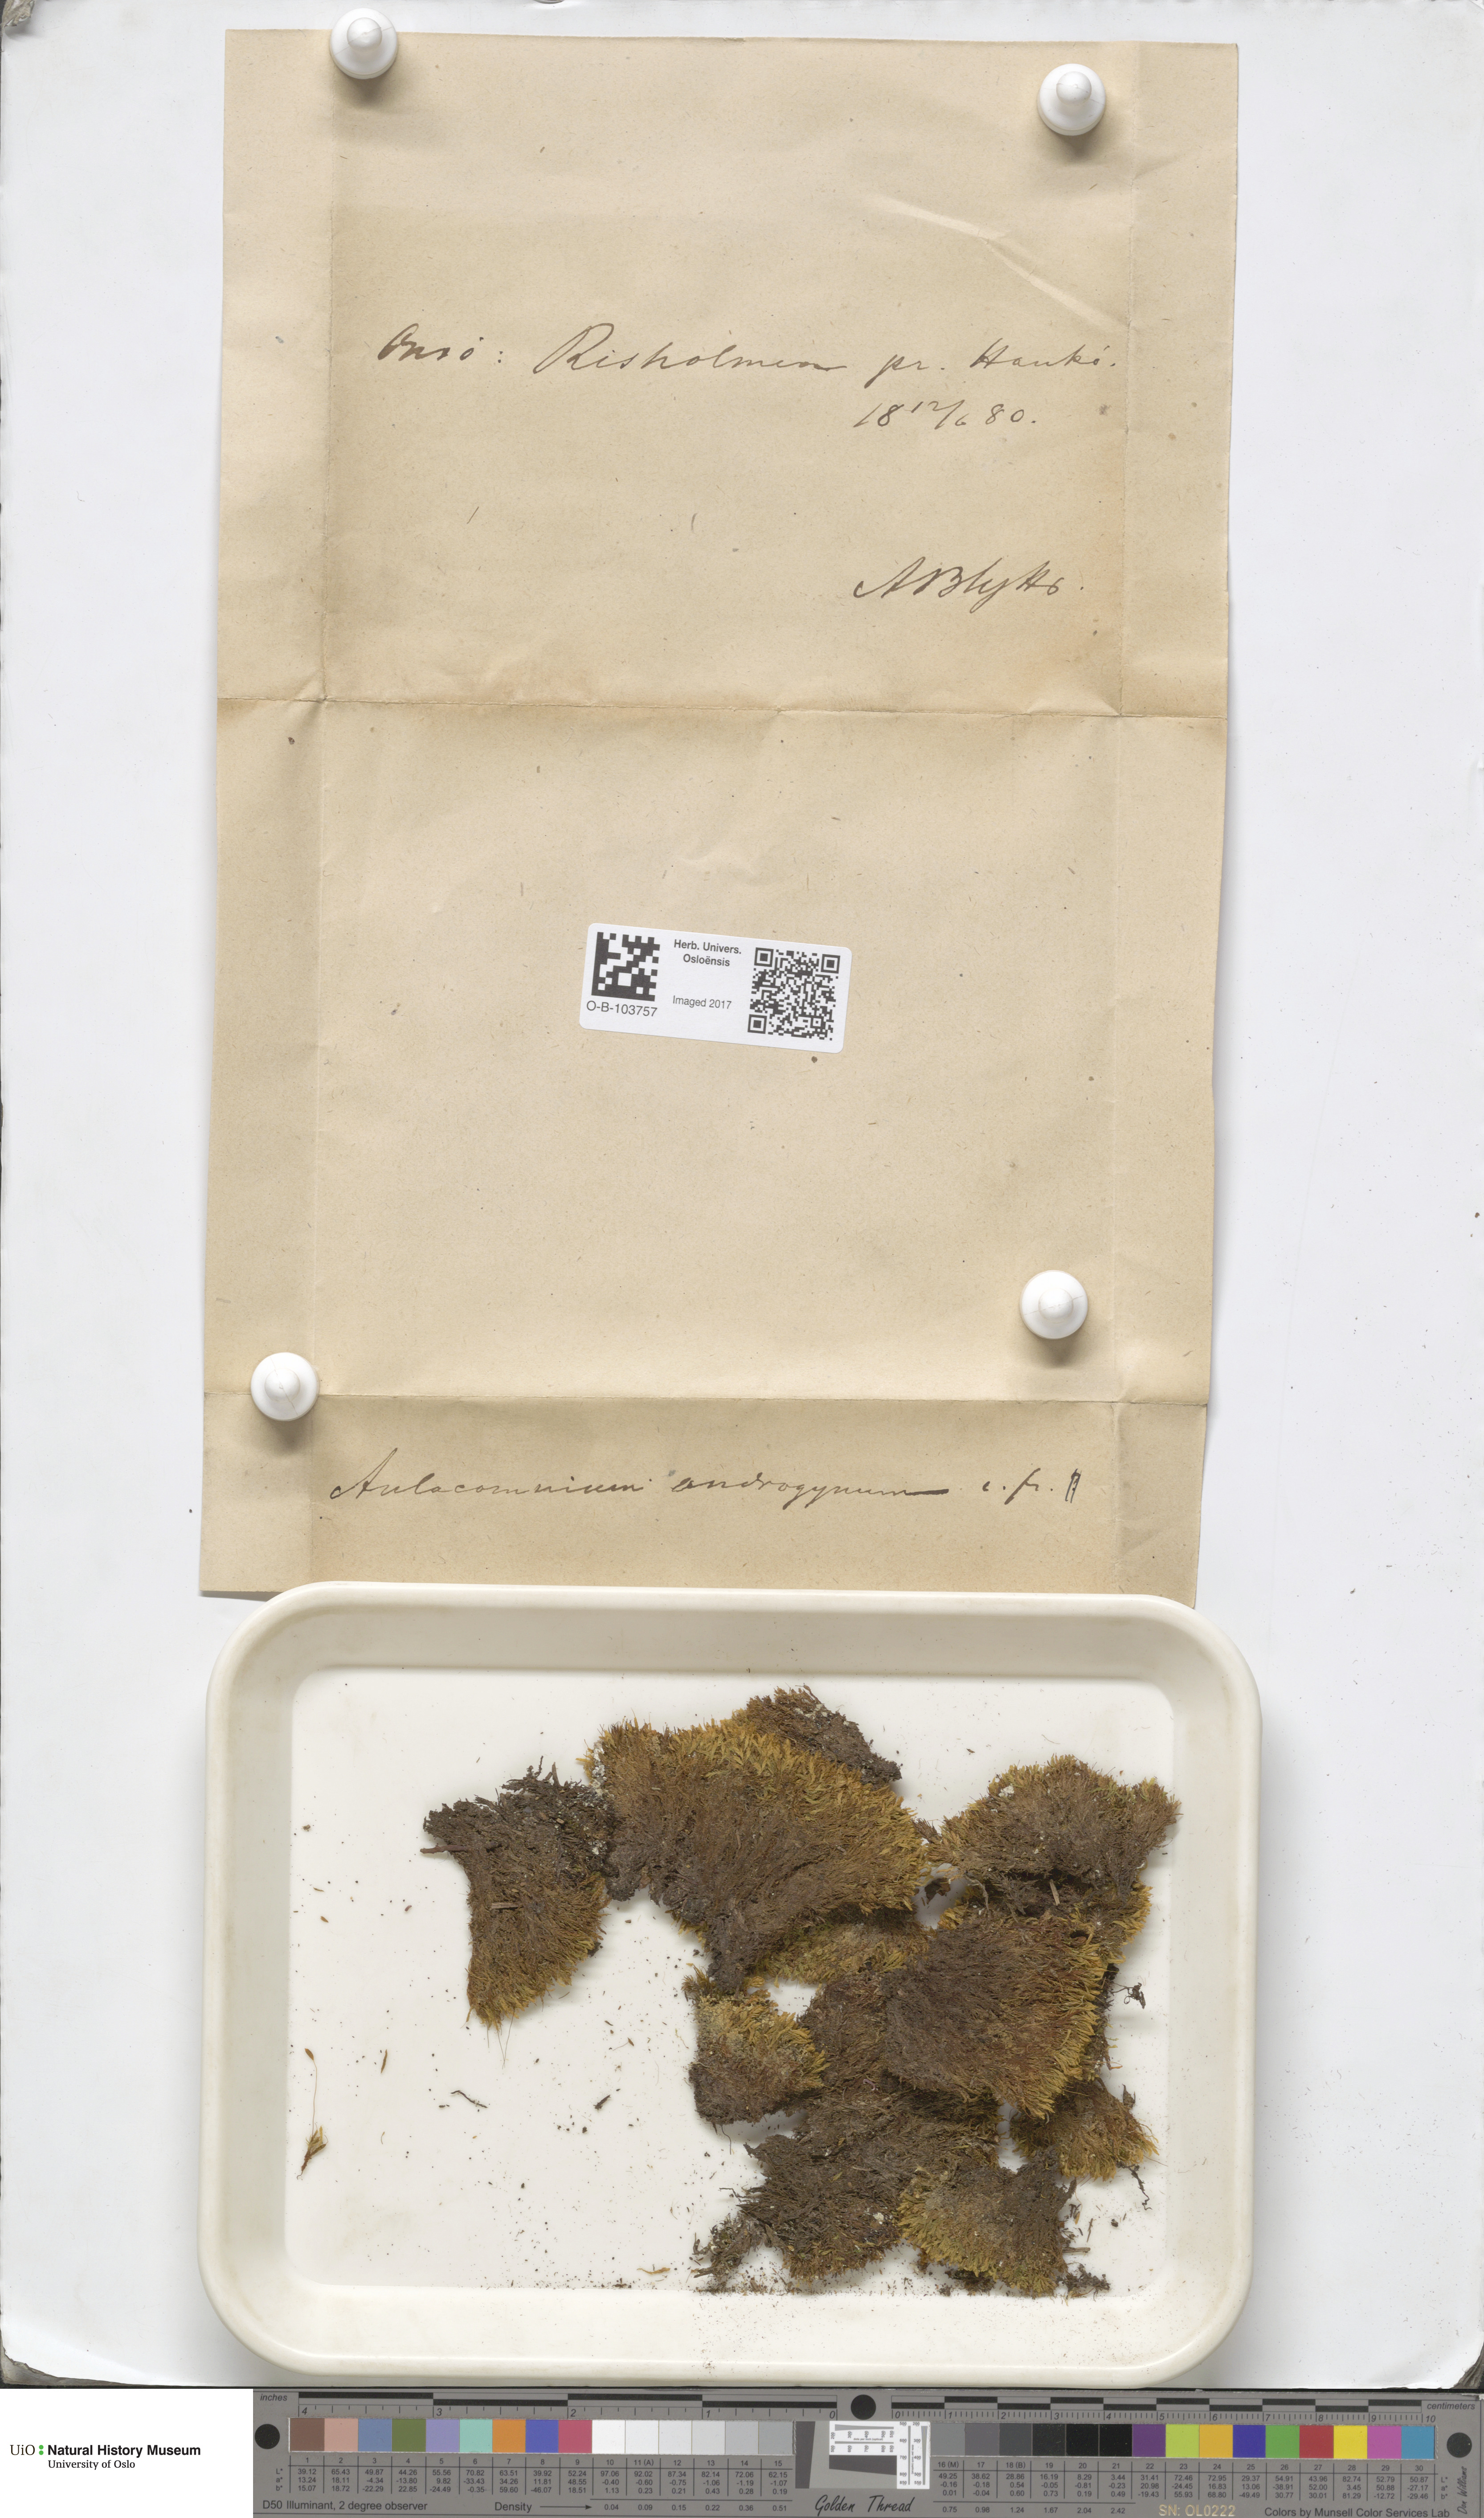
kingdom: Plantae
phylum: Bryophyta
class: Bryopsida
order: Aulacomniales
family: Aulacomniaceae
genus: Aulacomnium
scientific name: Aulacomnium androgynum
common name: Little groove moss
